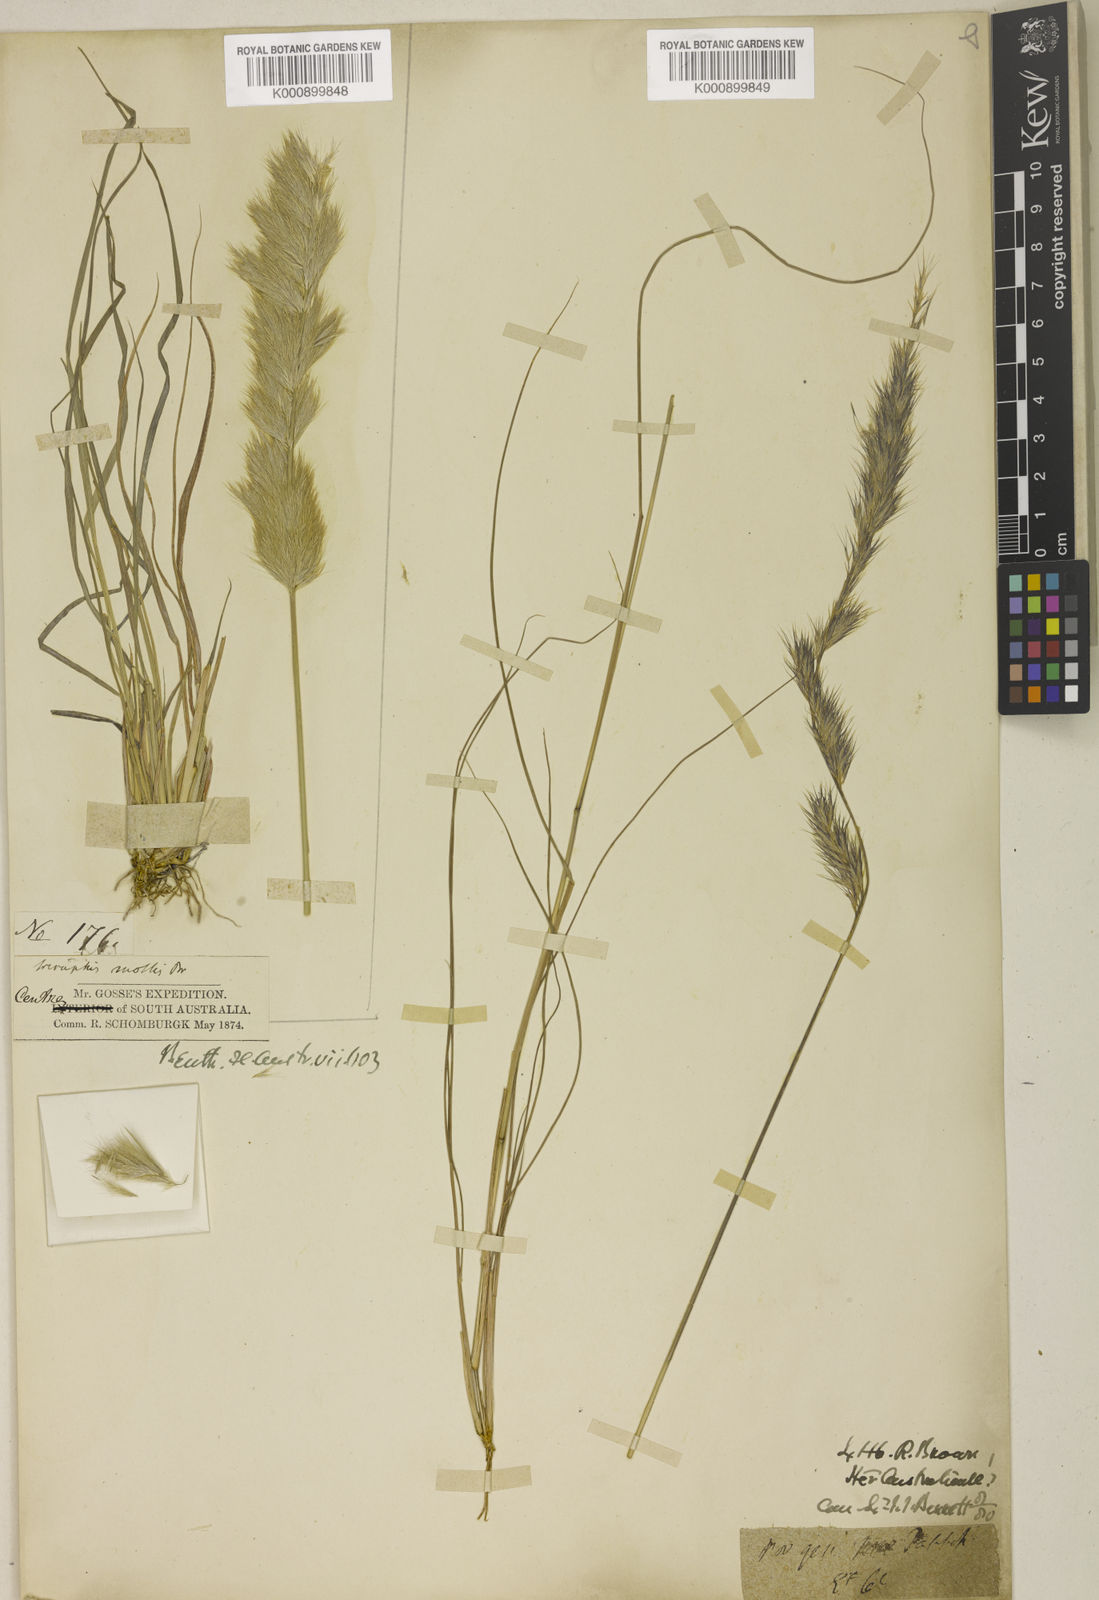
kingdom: Plantae
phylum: Tracheophyta
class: Liliopsida
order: Poales
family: Poaceae
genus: Triraphis
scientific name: Triraphis mollis
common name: Purple needlegrass
